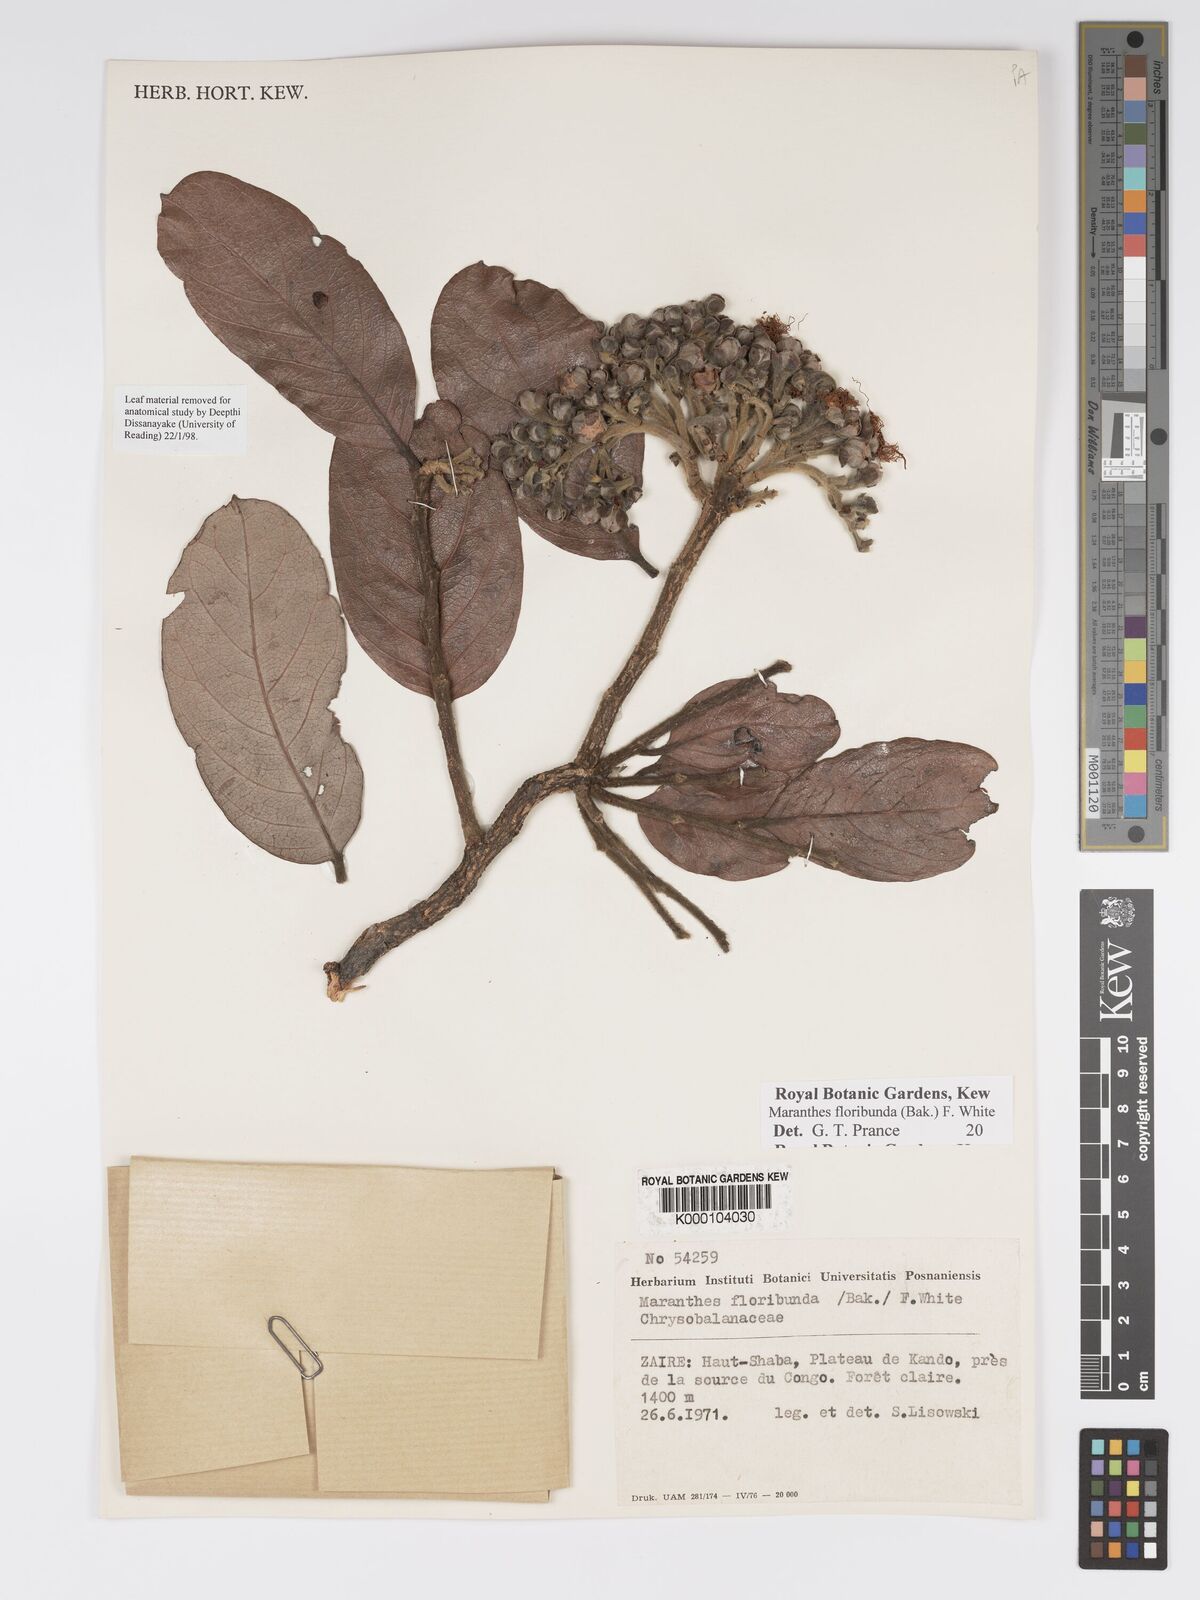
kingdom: Plantae
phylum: Tracheophyta
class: Magnoliopsida
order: Malpighiales
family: Chrysobalanaceae
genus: Maranthes
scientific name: Maranthes floribunda
